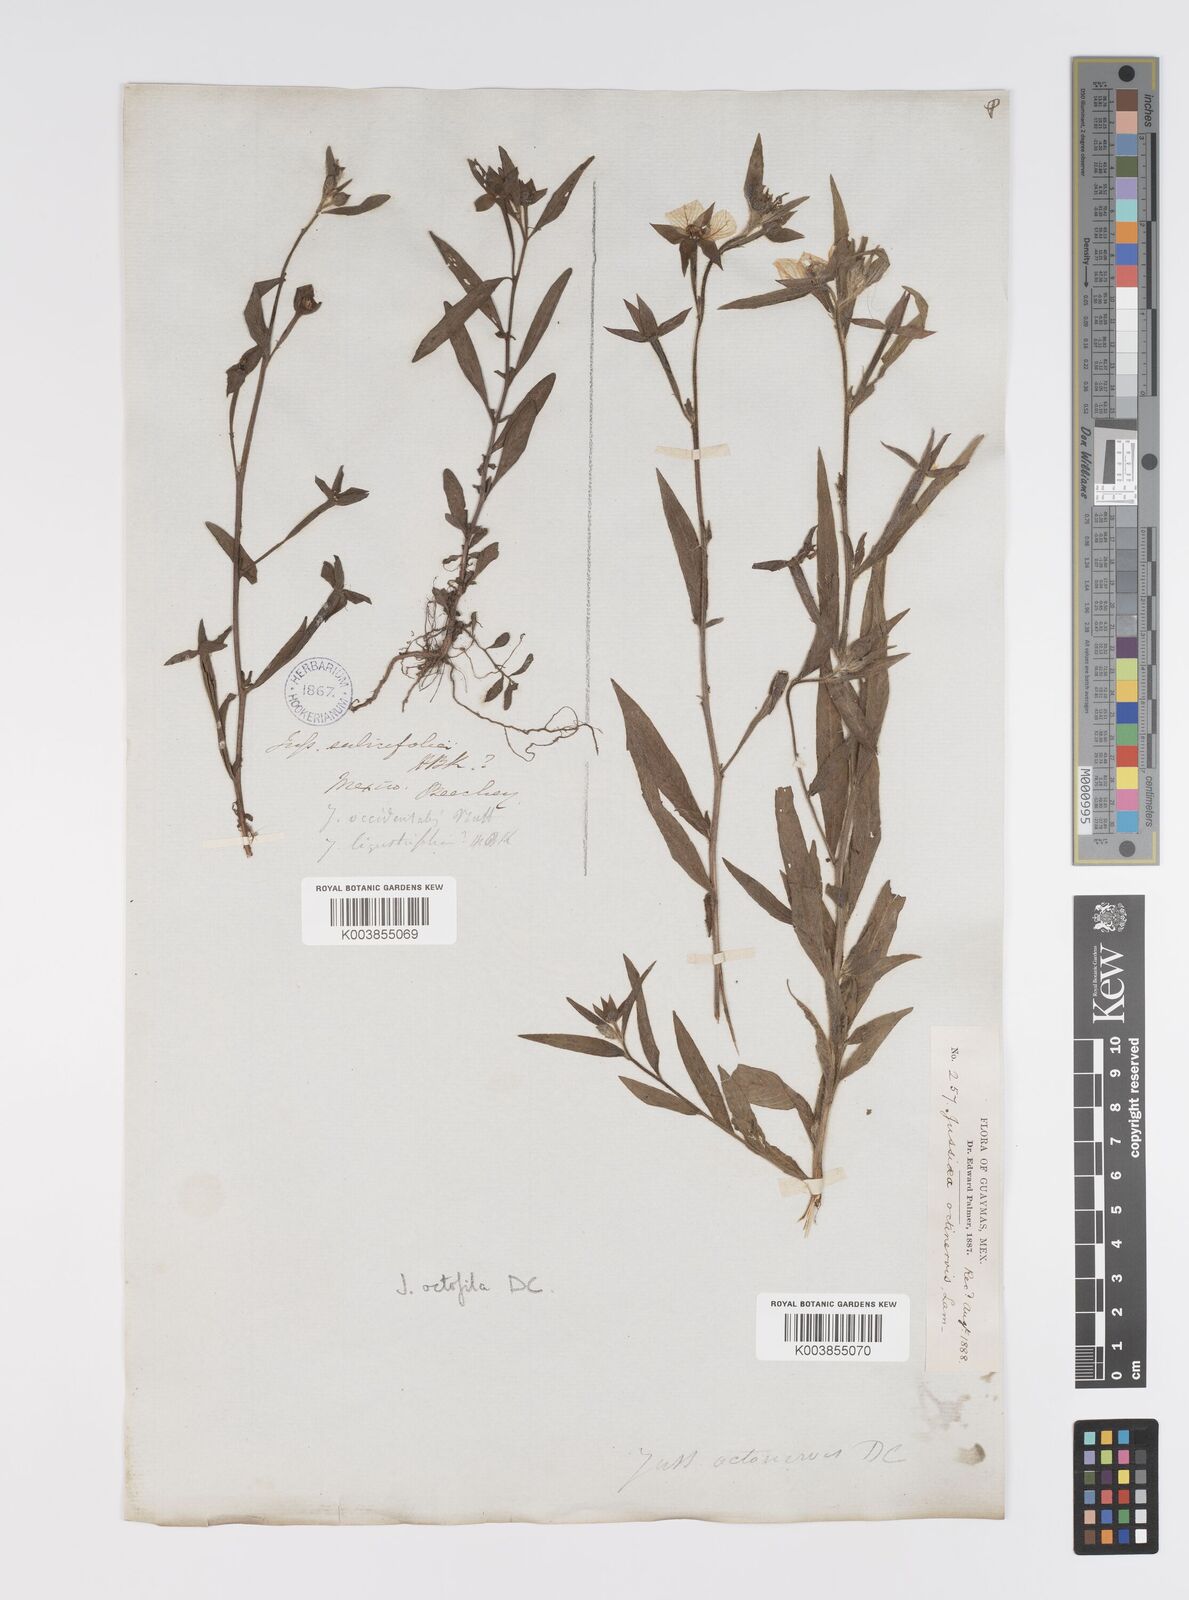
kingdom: Plantae
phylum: Tracheophyta
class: Magnoliopsida
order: Myrtales
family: Onagraceae
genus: Ludwigia
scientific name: Ludwigia octovalvis
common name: Water-primrose
